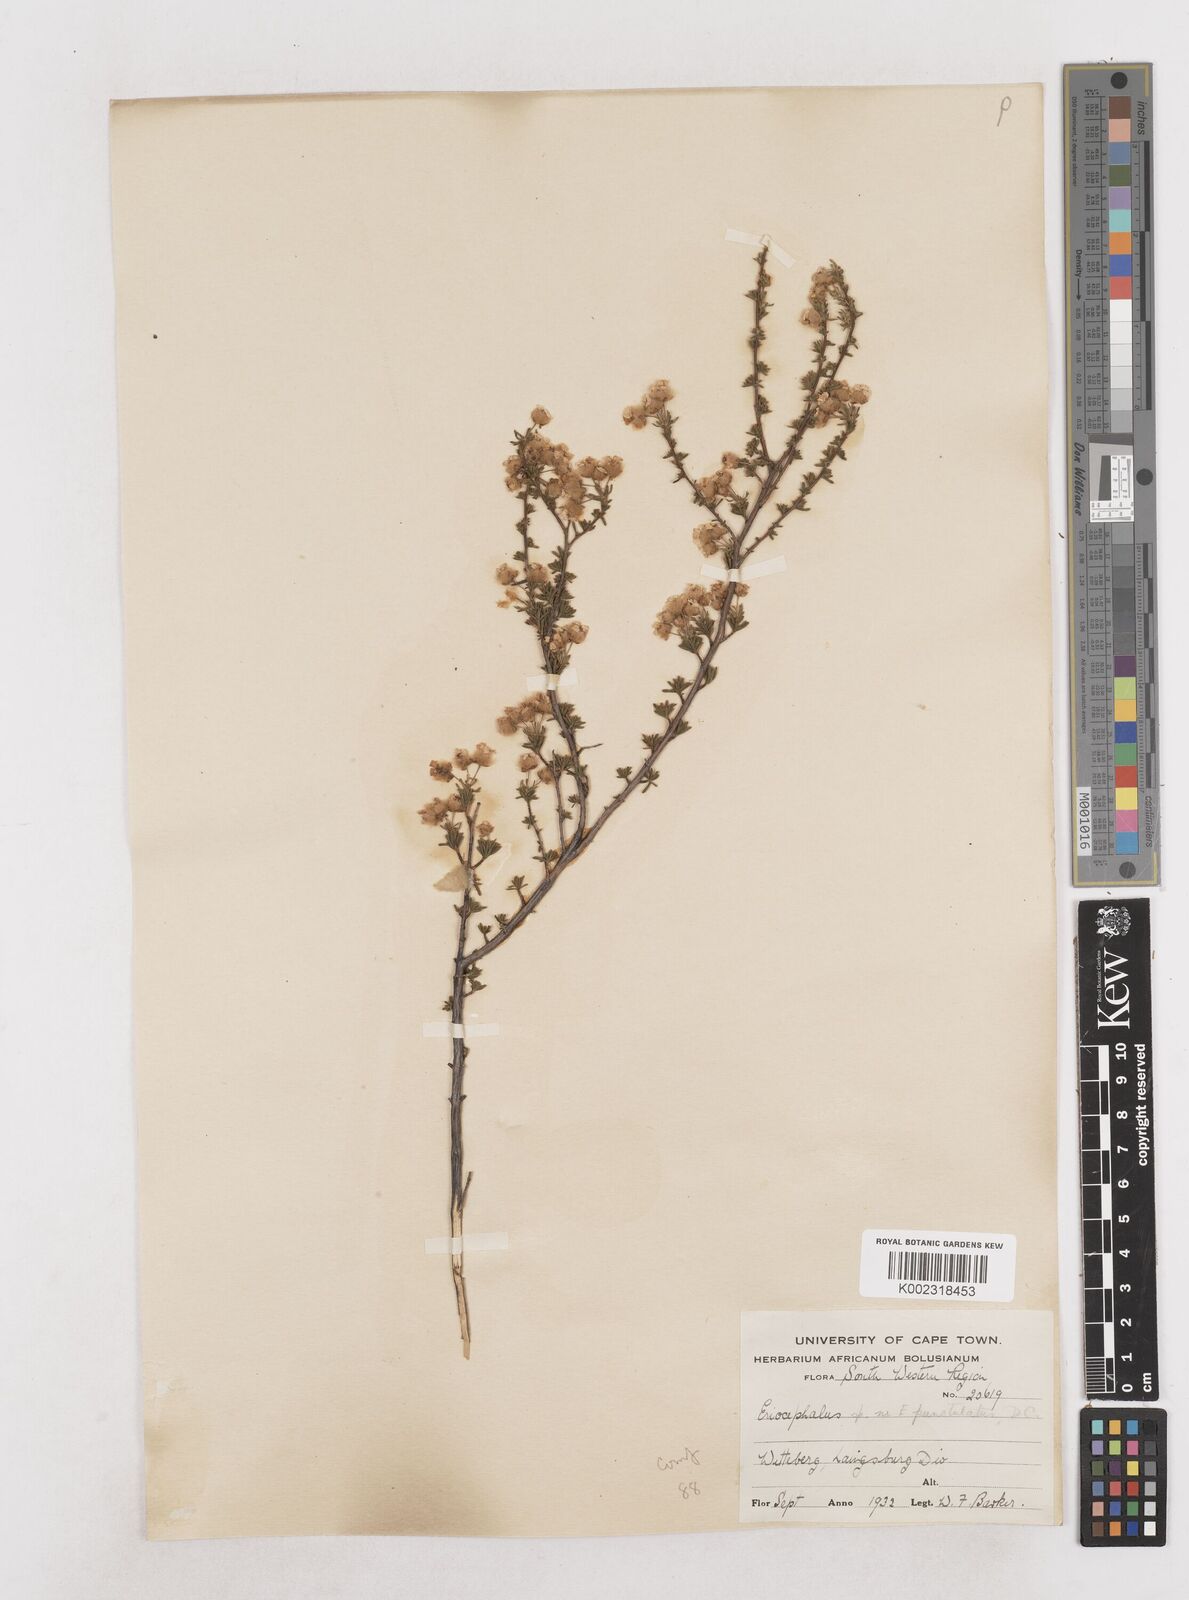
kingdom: Plantae
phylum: Tracheophyta
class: Magnoliopsida
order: Asterales
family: Asteraceae
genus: Eriocephalus
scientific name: Eriocephalus
